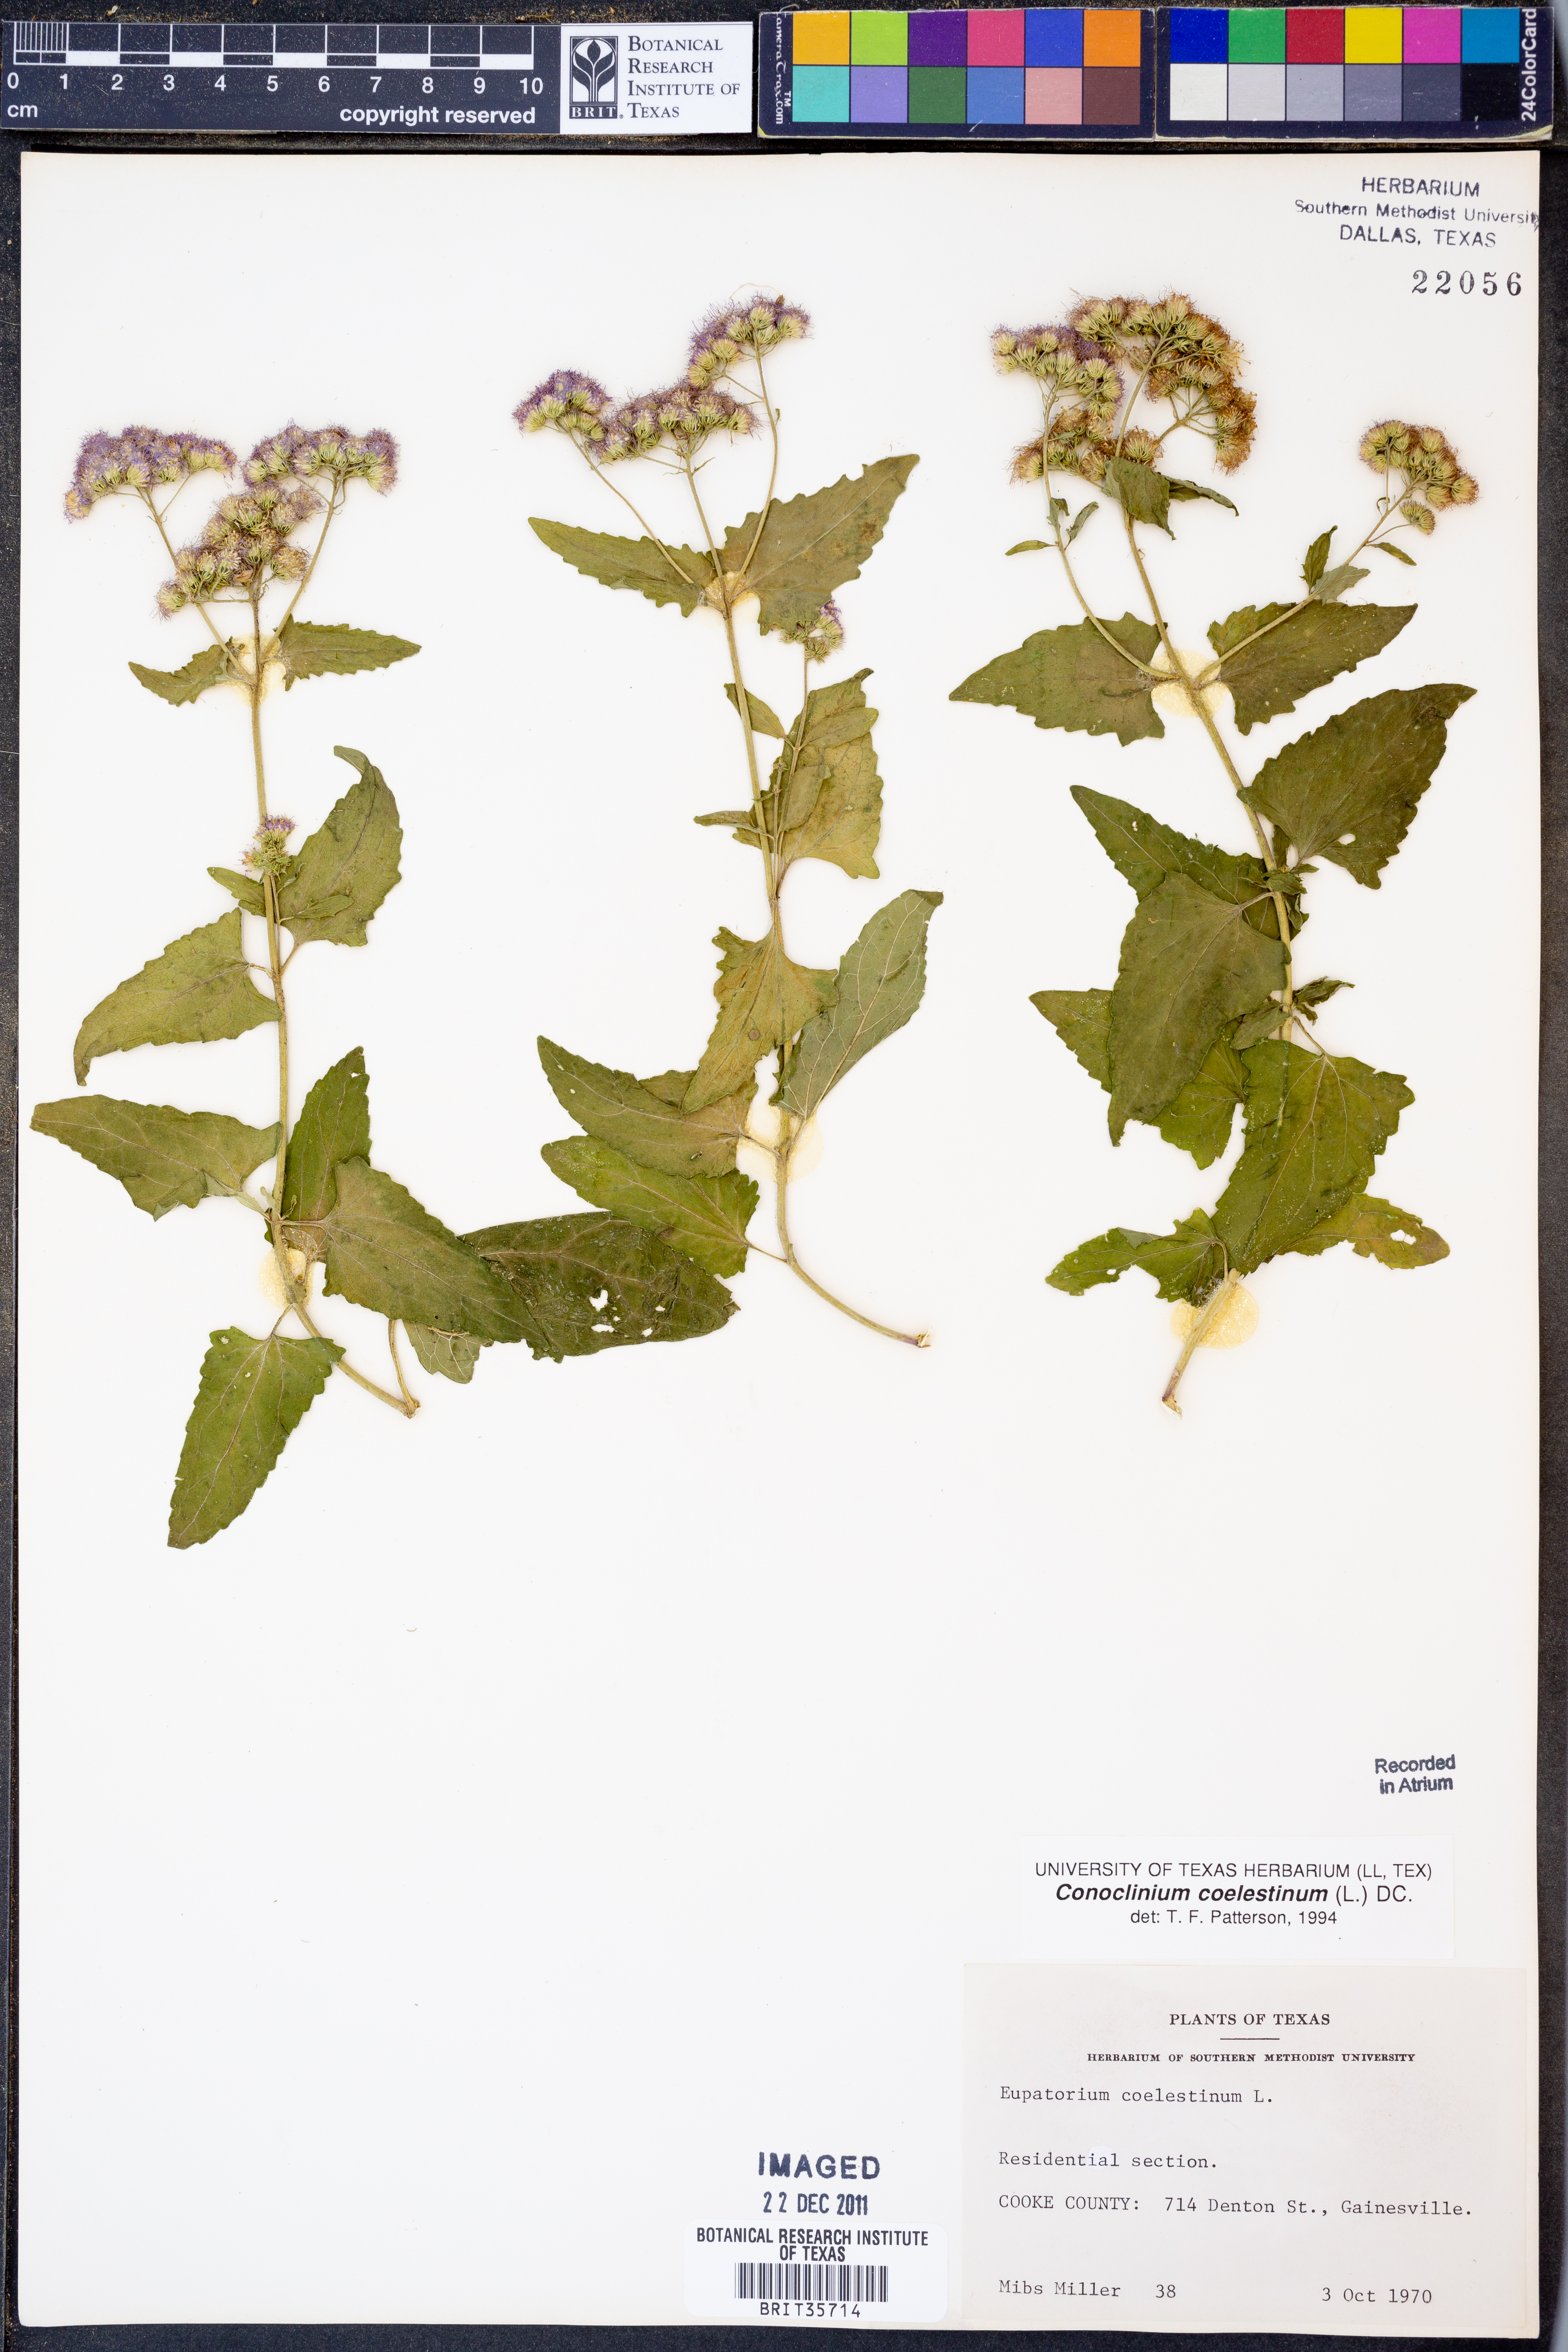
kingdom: Plantae
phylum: Tracheophyta
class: Magnoliopsida
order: Asterales
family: Asteraceae
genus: Conoclinium
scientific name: Conoclinium coelestinum
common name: Blue mistflower
